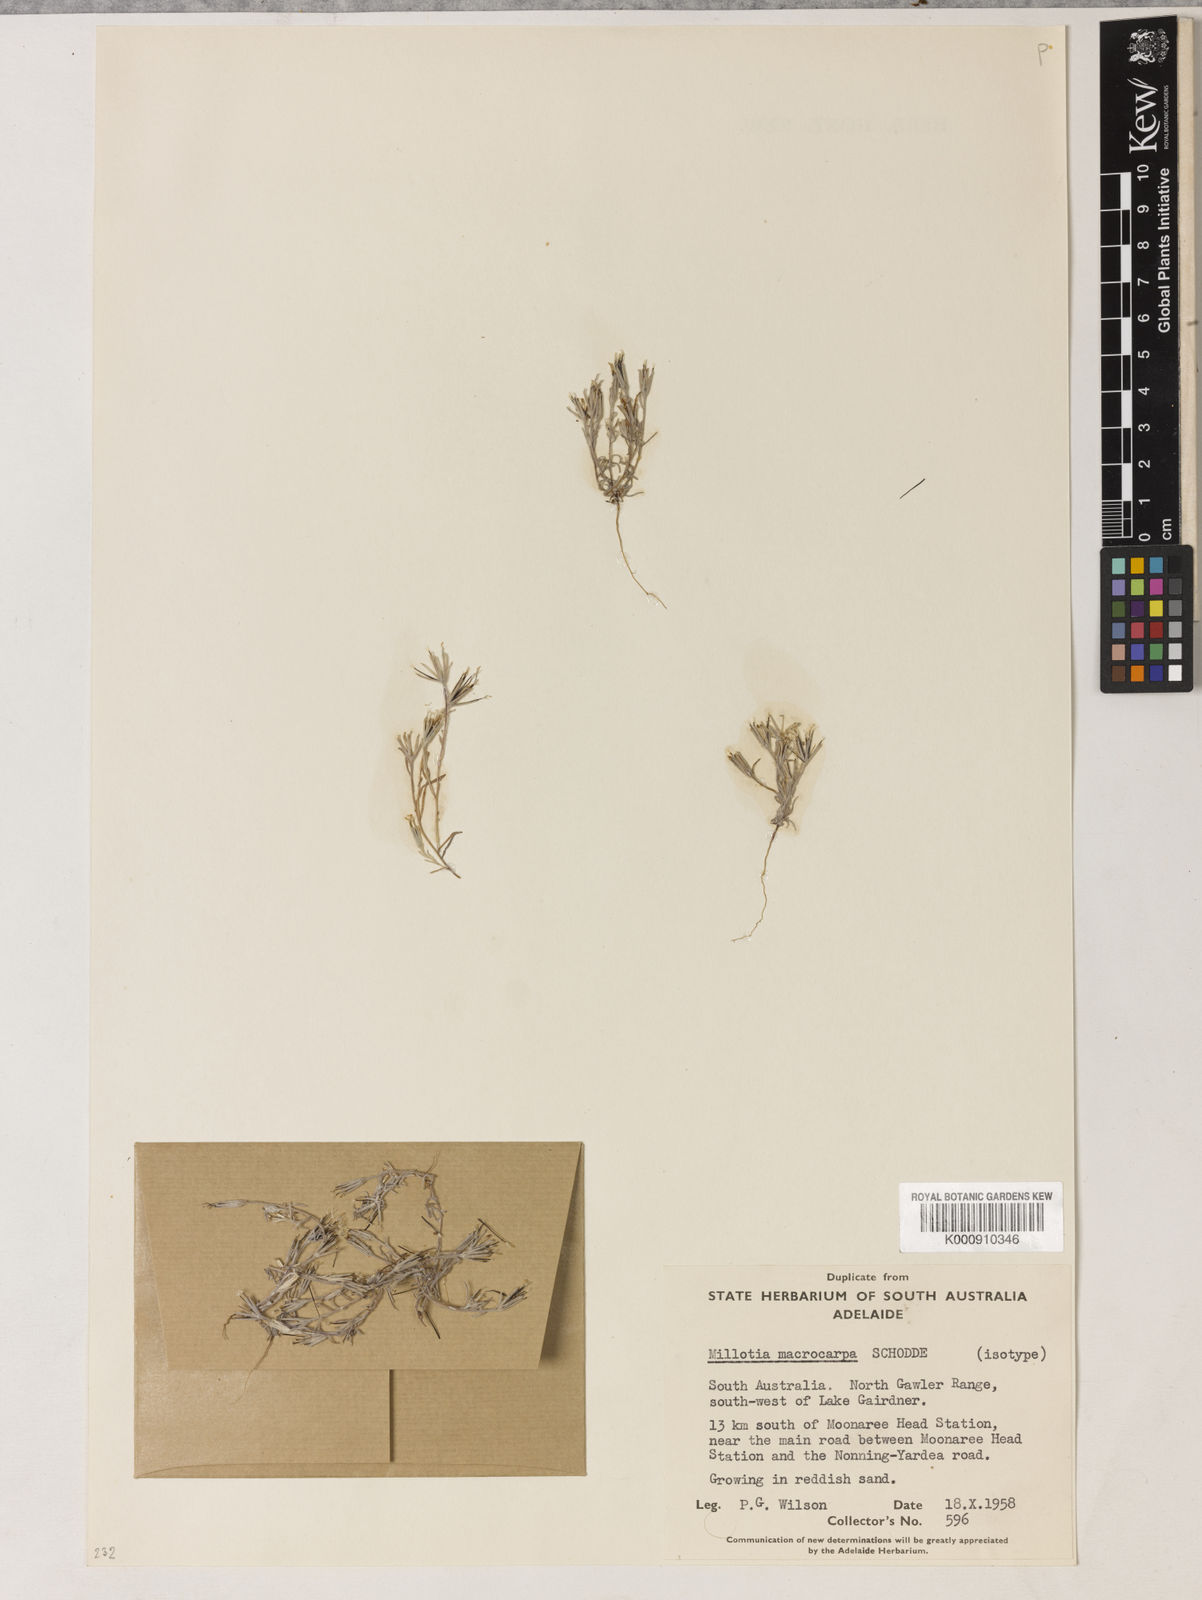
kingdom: Plantae
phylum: Tracheophyta
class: Magnoliopsida
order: Asterales
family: Asteraceae
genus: Millotia
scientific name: Millotia macrocarpa
